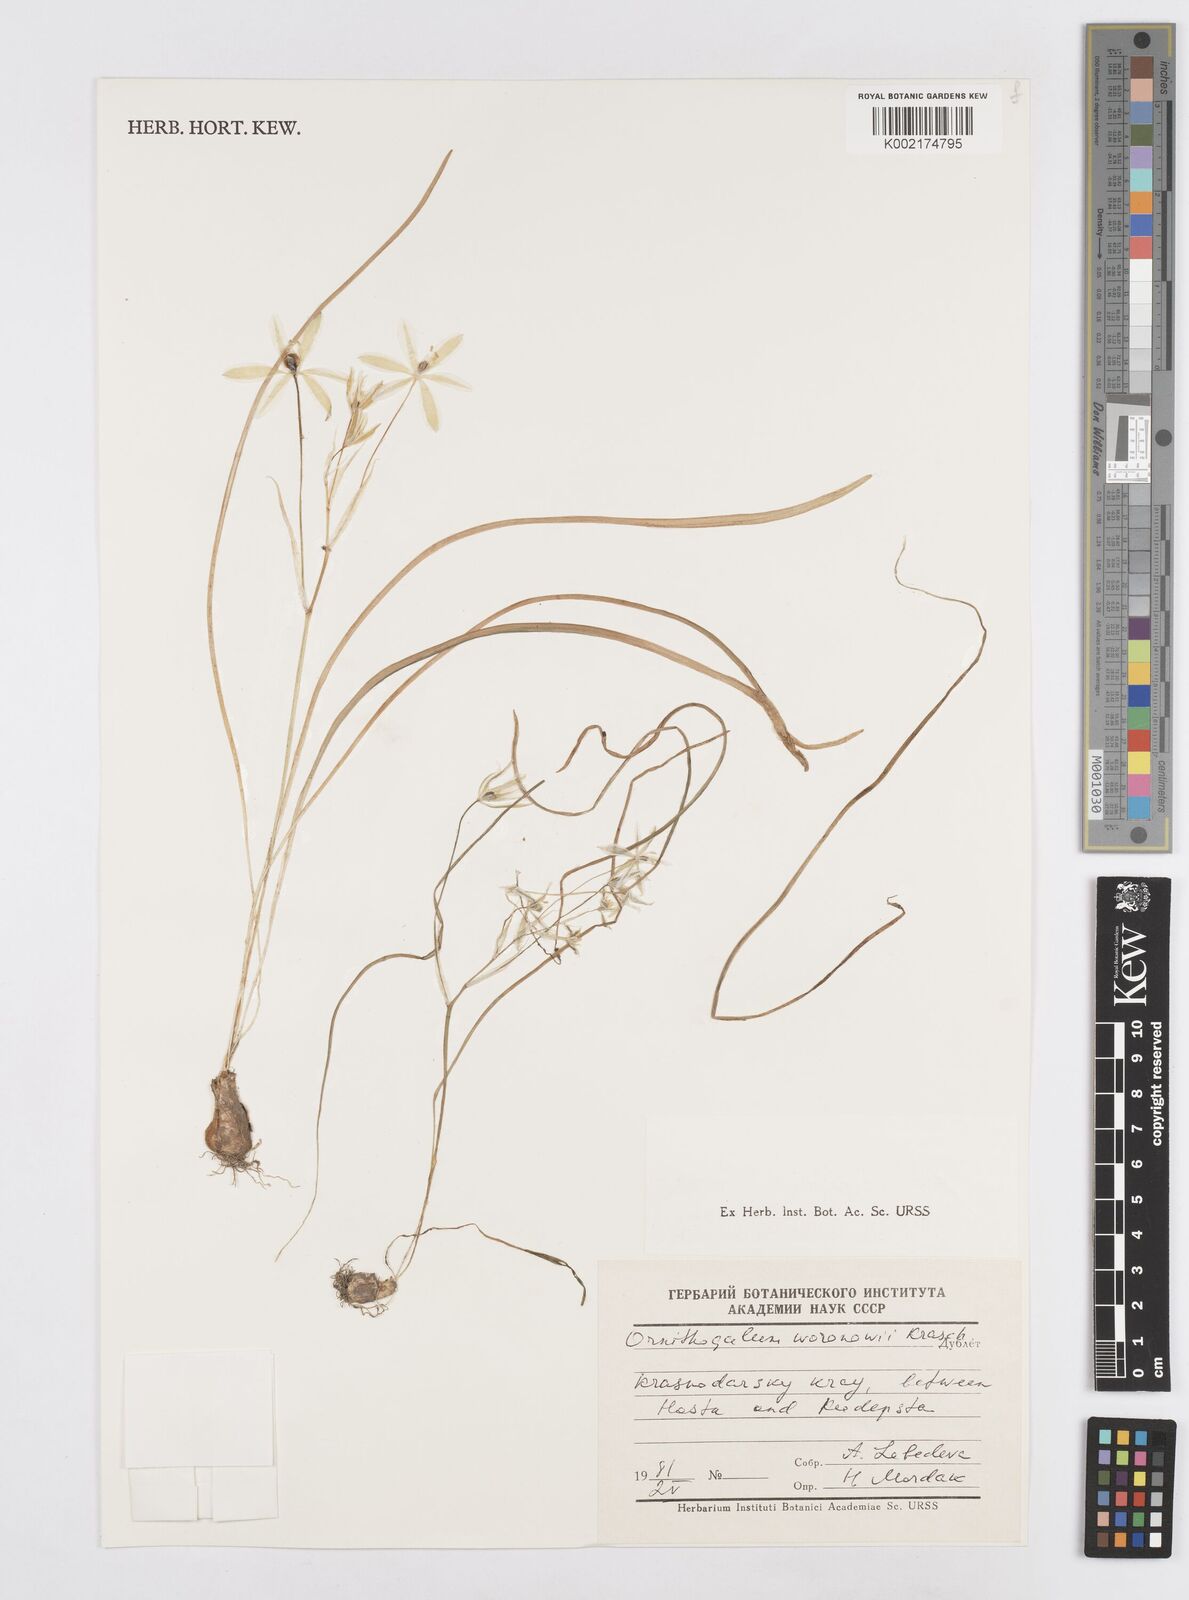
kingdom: Plantae
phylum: Tracheophyta
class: Liliopsida
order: Asparagales
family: Asparagaceae
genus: Ornithogalum
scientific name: Ornithogalum woronowii
